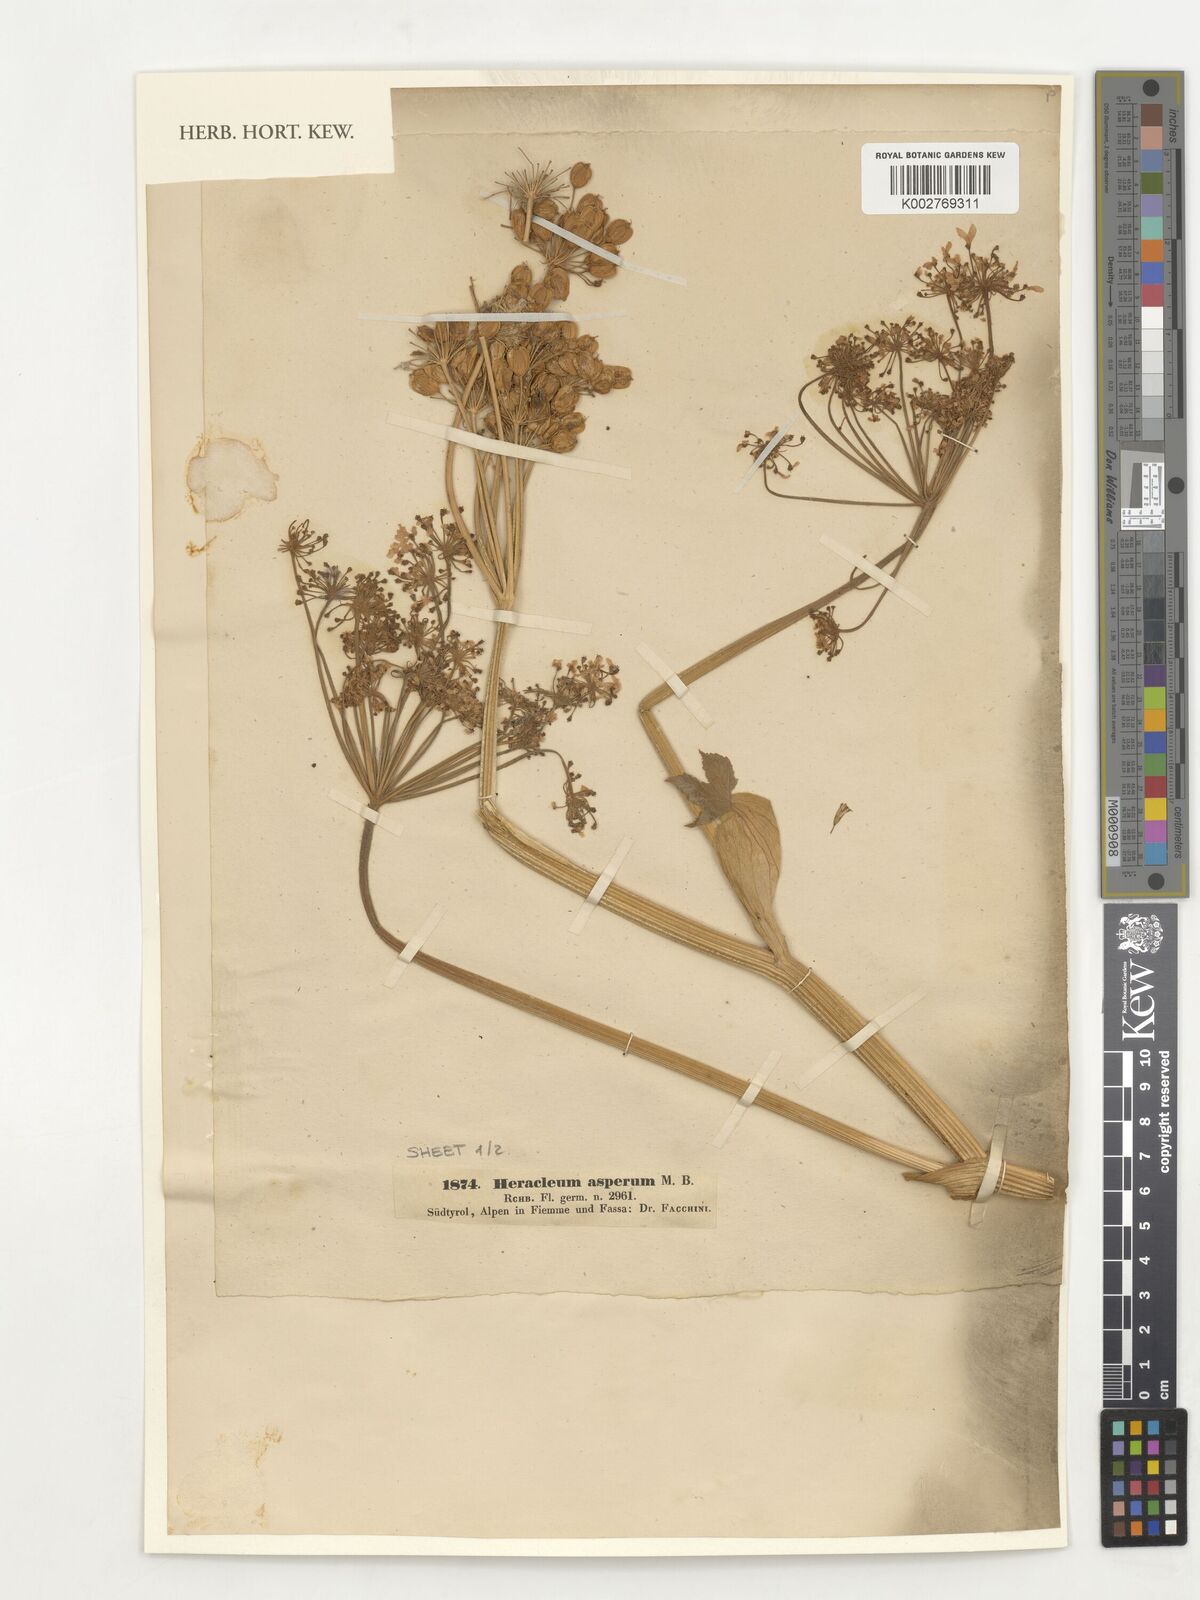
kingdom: Plantae
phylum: Tracheophyta
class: Magnoliopsida
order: Apiales
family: Apiaceae
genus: Heracleum
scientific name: Heracleum sphondylium
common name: Hogweed
